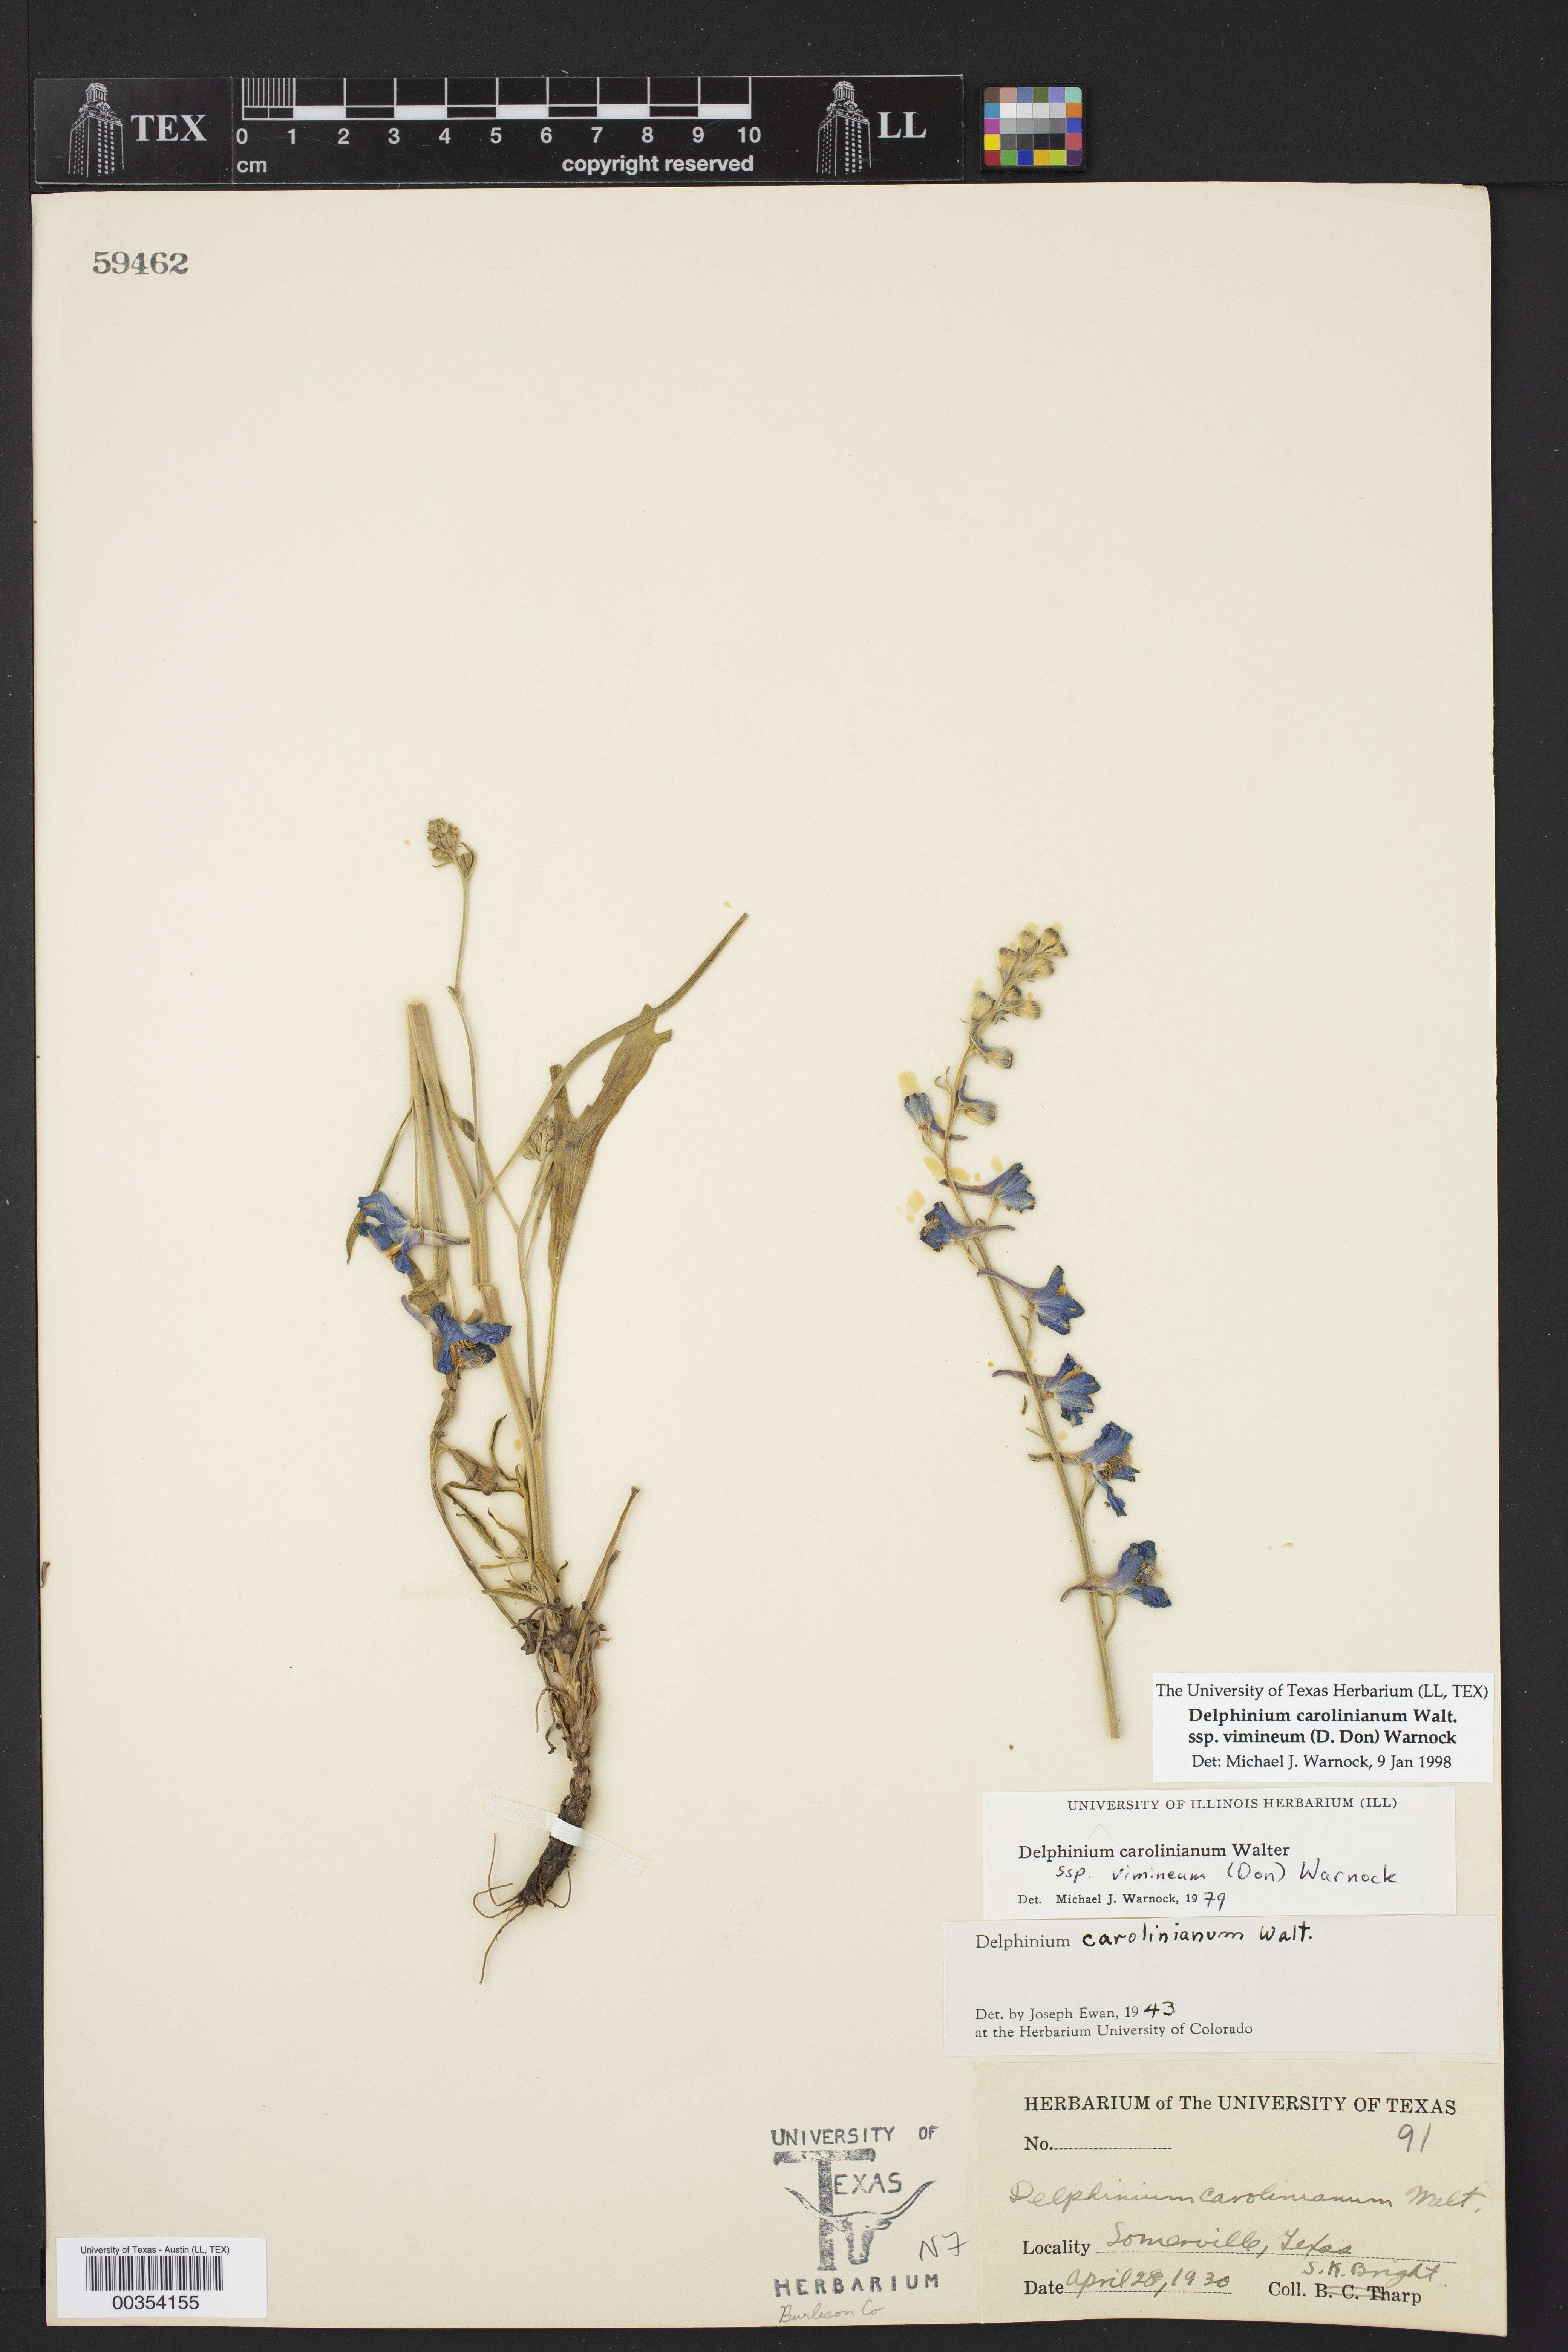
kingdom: Plantae
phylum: Tracheophyta
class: Magnoliopsida
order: Ranunculales
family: Ranunculaceae
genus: Delphinium
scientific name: Delphinium carolinianum
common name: Carolina larkspur
